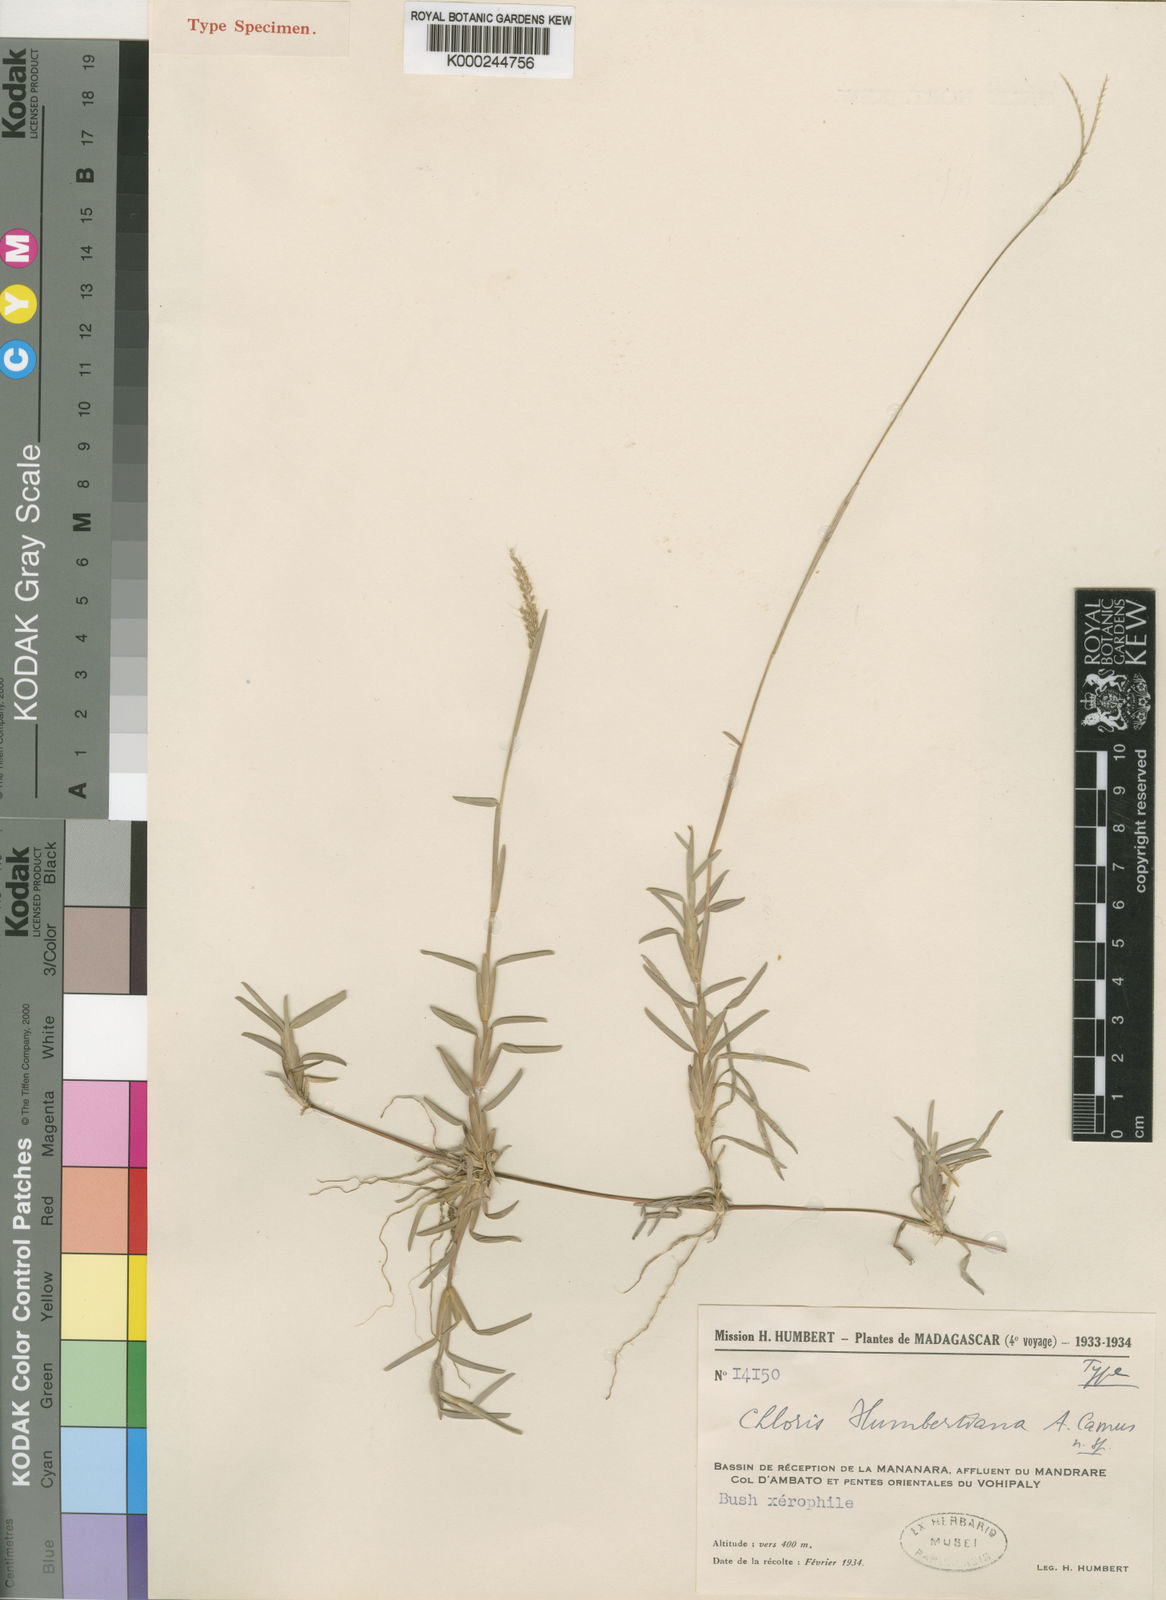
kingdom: Plantae
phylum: Tracheophyta
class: Liliopsida
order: Poales
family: Poaceae
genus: Chloris
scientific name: Chloris humbertiana
